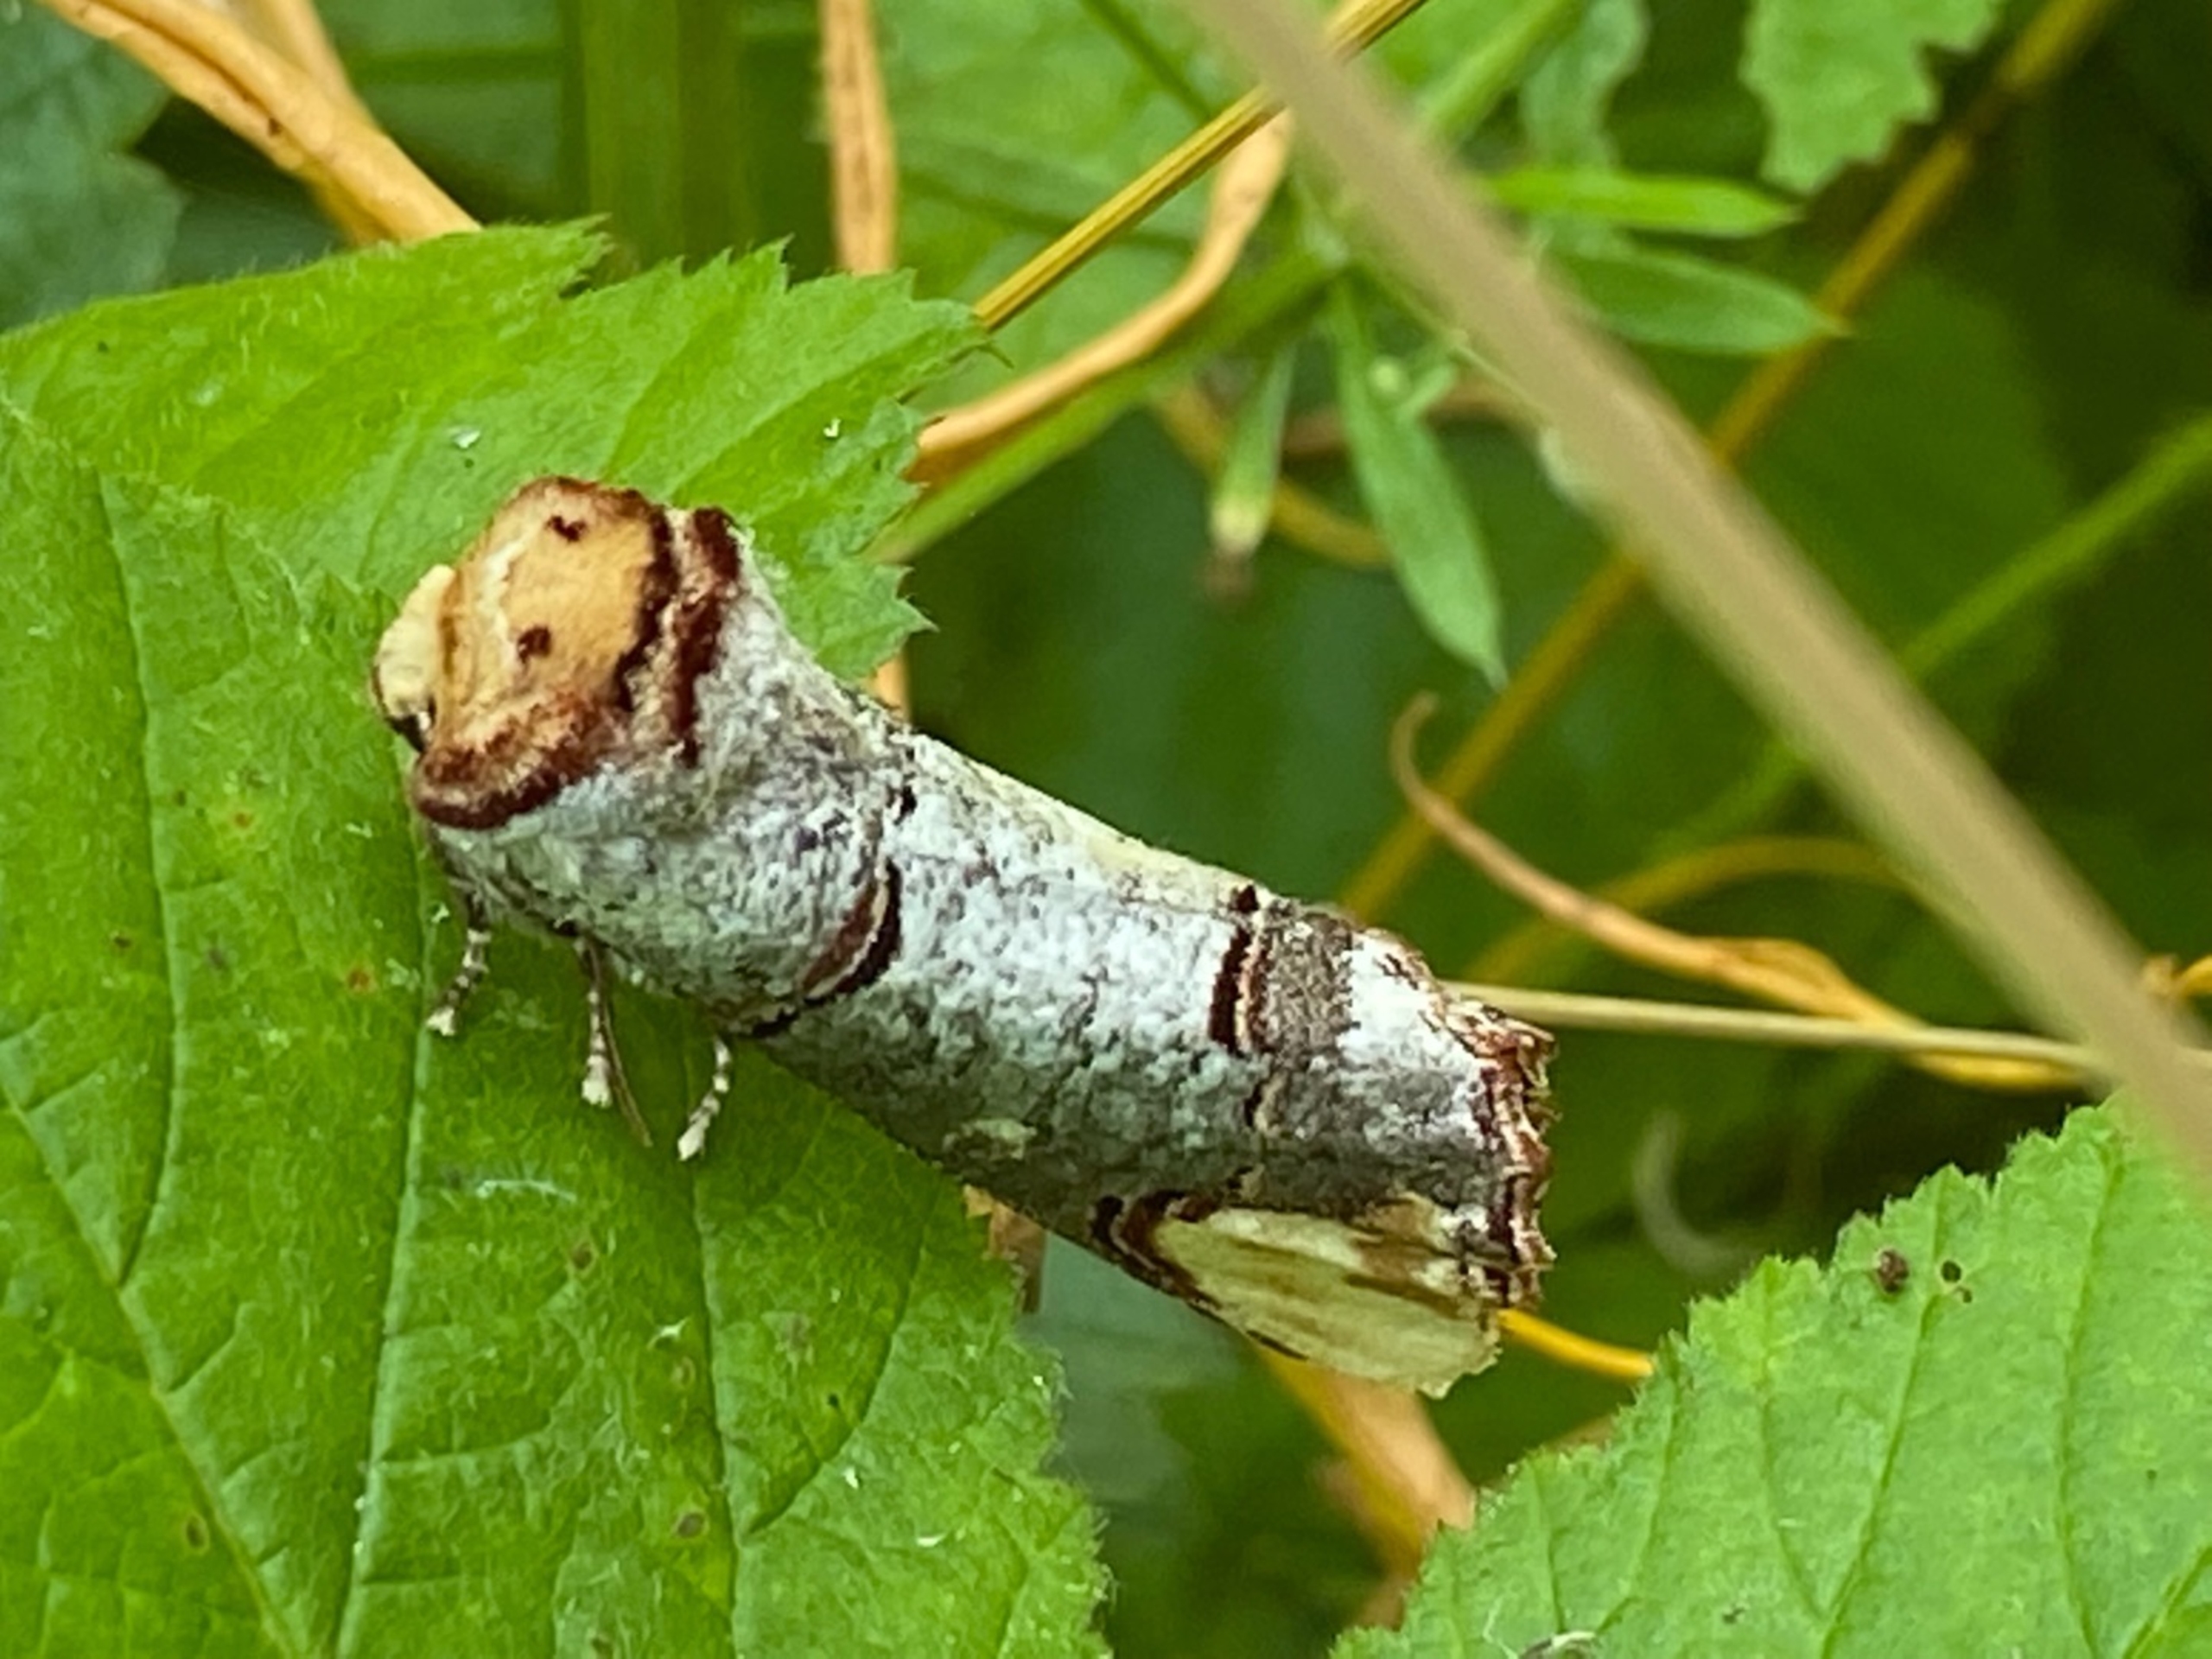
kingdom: Animalia
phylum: Arthropoda
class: Insecta
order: Lepidoptera
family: Notodontidae
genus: Phalera
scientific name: Phalera bucephala
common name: Måneplet
